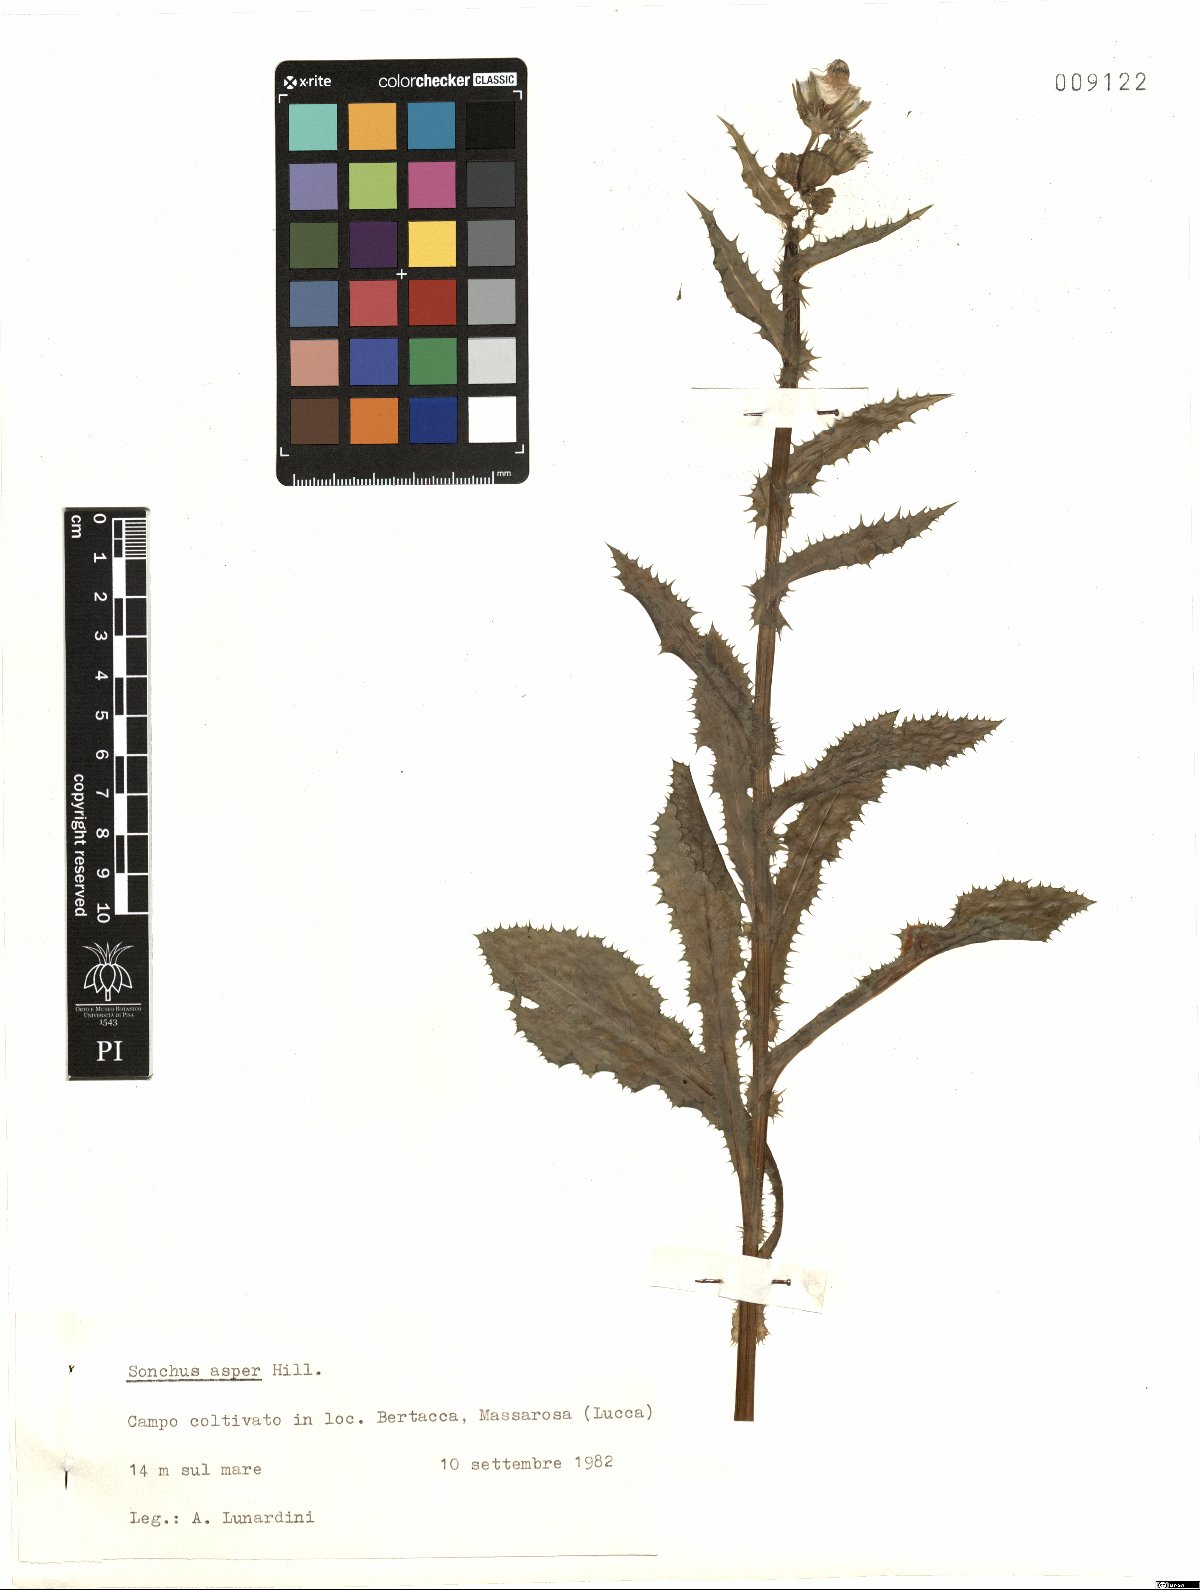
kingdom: Plantae
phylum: Tracheophyta
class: Magnoliopsida
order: Asterales
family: Asteraceae
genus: Sonchus
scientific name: Sonchus asper
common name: Prickly sow-thistle
